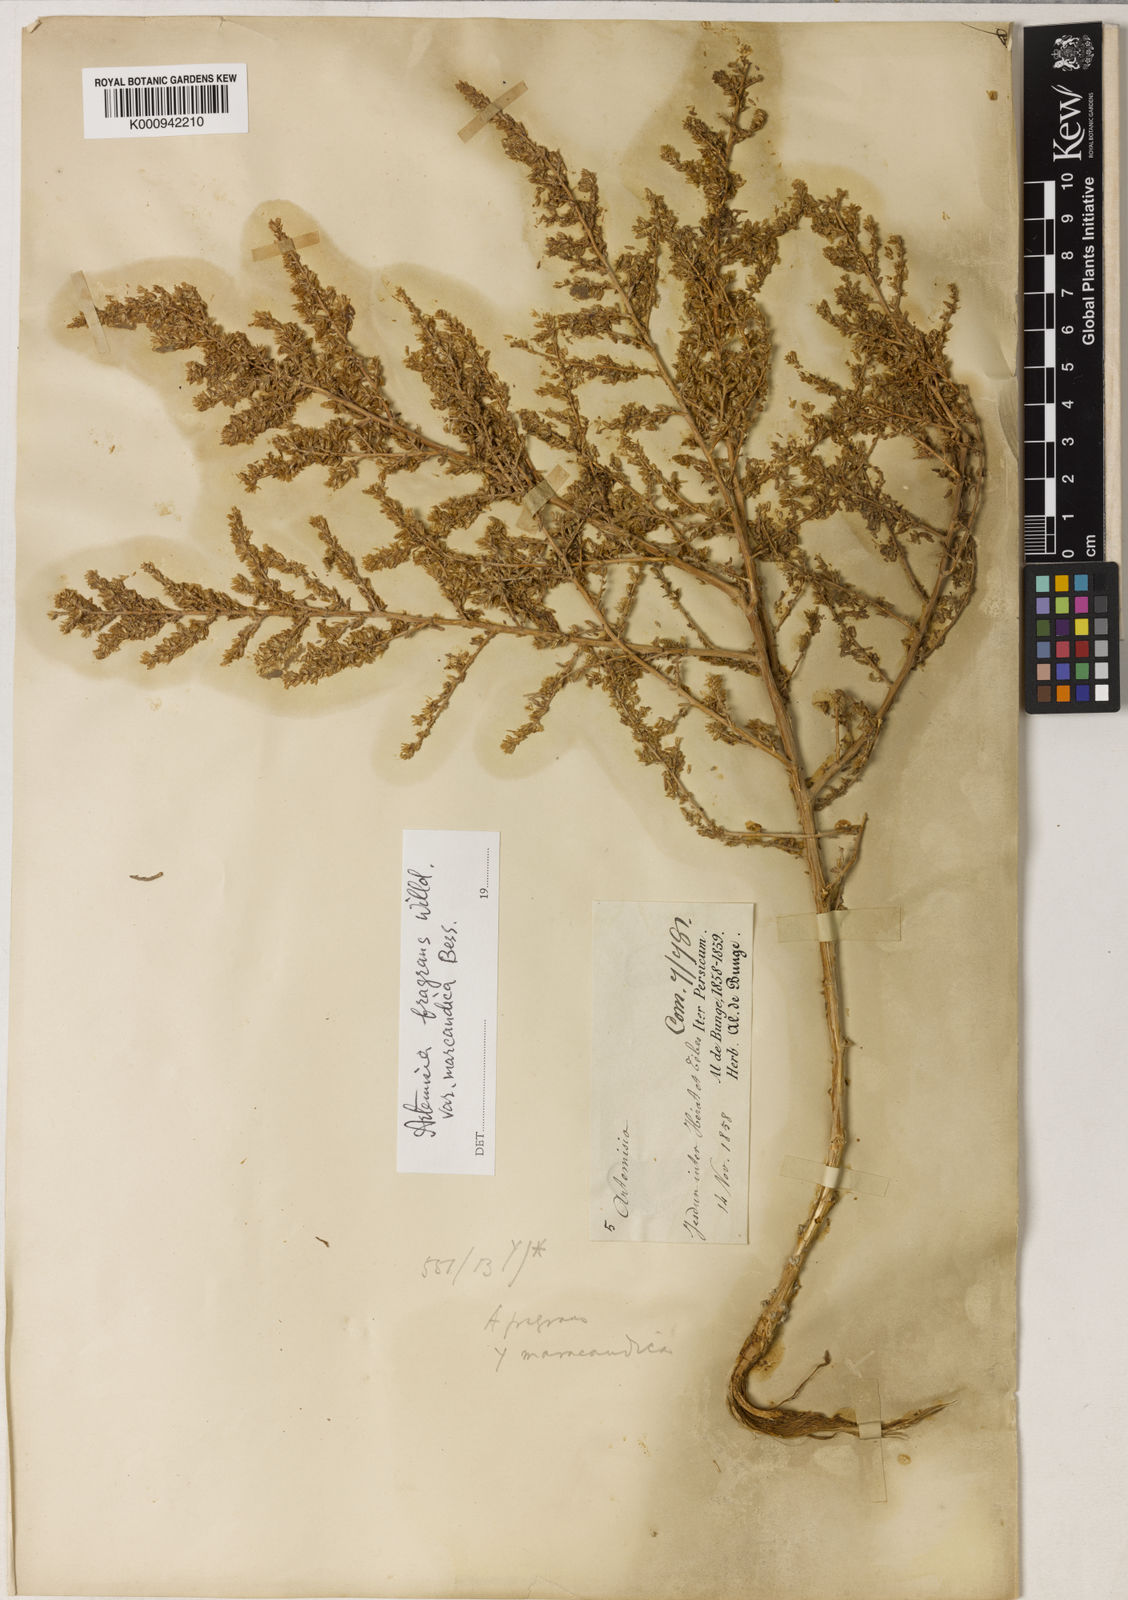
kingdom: Plantae
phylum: Tracheophyta
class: Magnoliopsida
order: Asterales
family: Asteraceae
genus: Artemisia
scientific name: Artemisia fragrans
